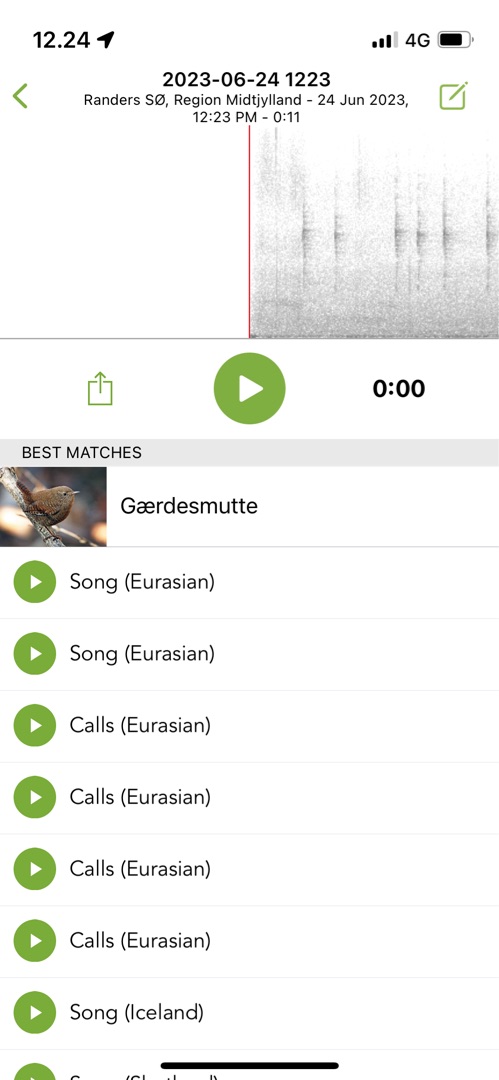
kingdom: Animalia
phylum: Chordata
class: Aves
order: Passeriformes
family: Troglodytidae
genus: Troglodytes
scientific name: Troglodytes troglodytes
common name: Gærdesmutte
